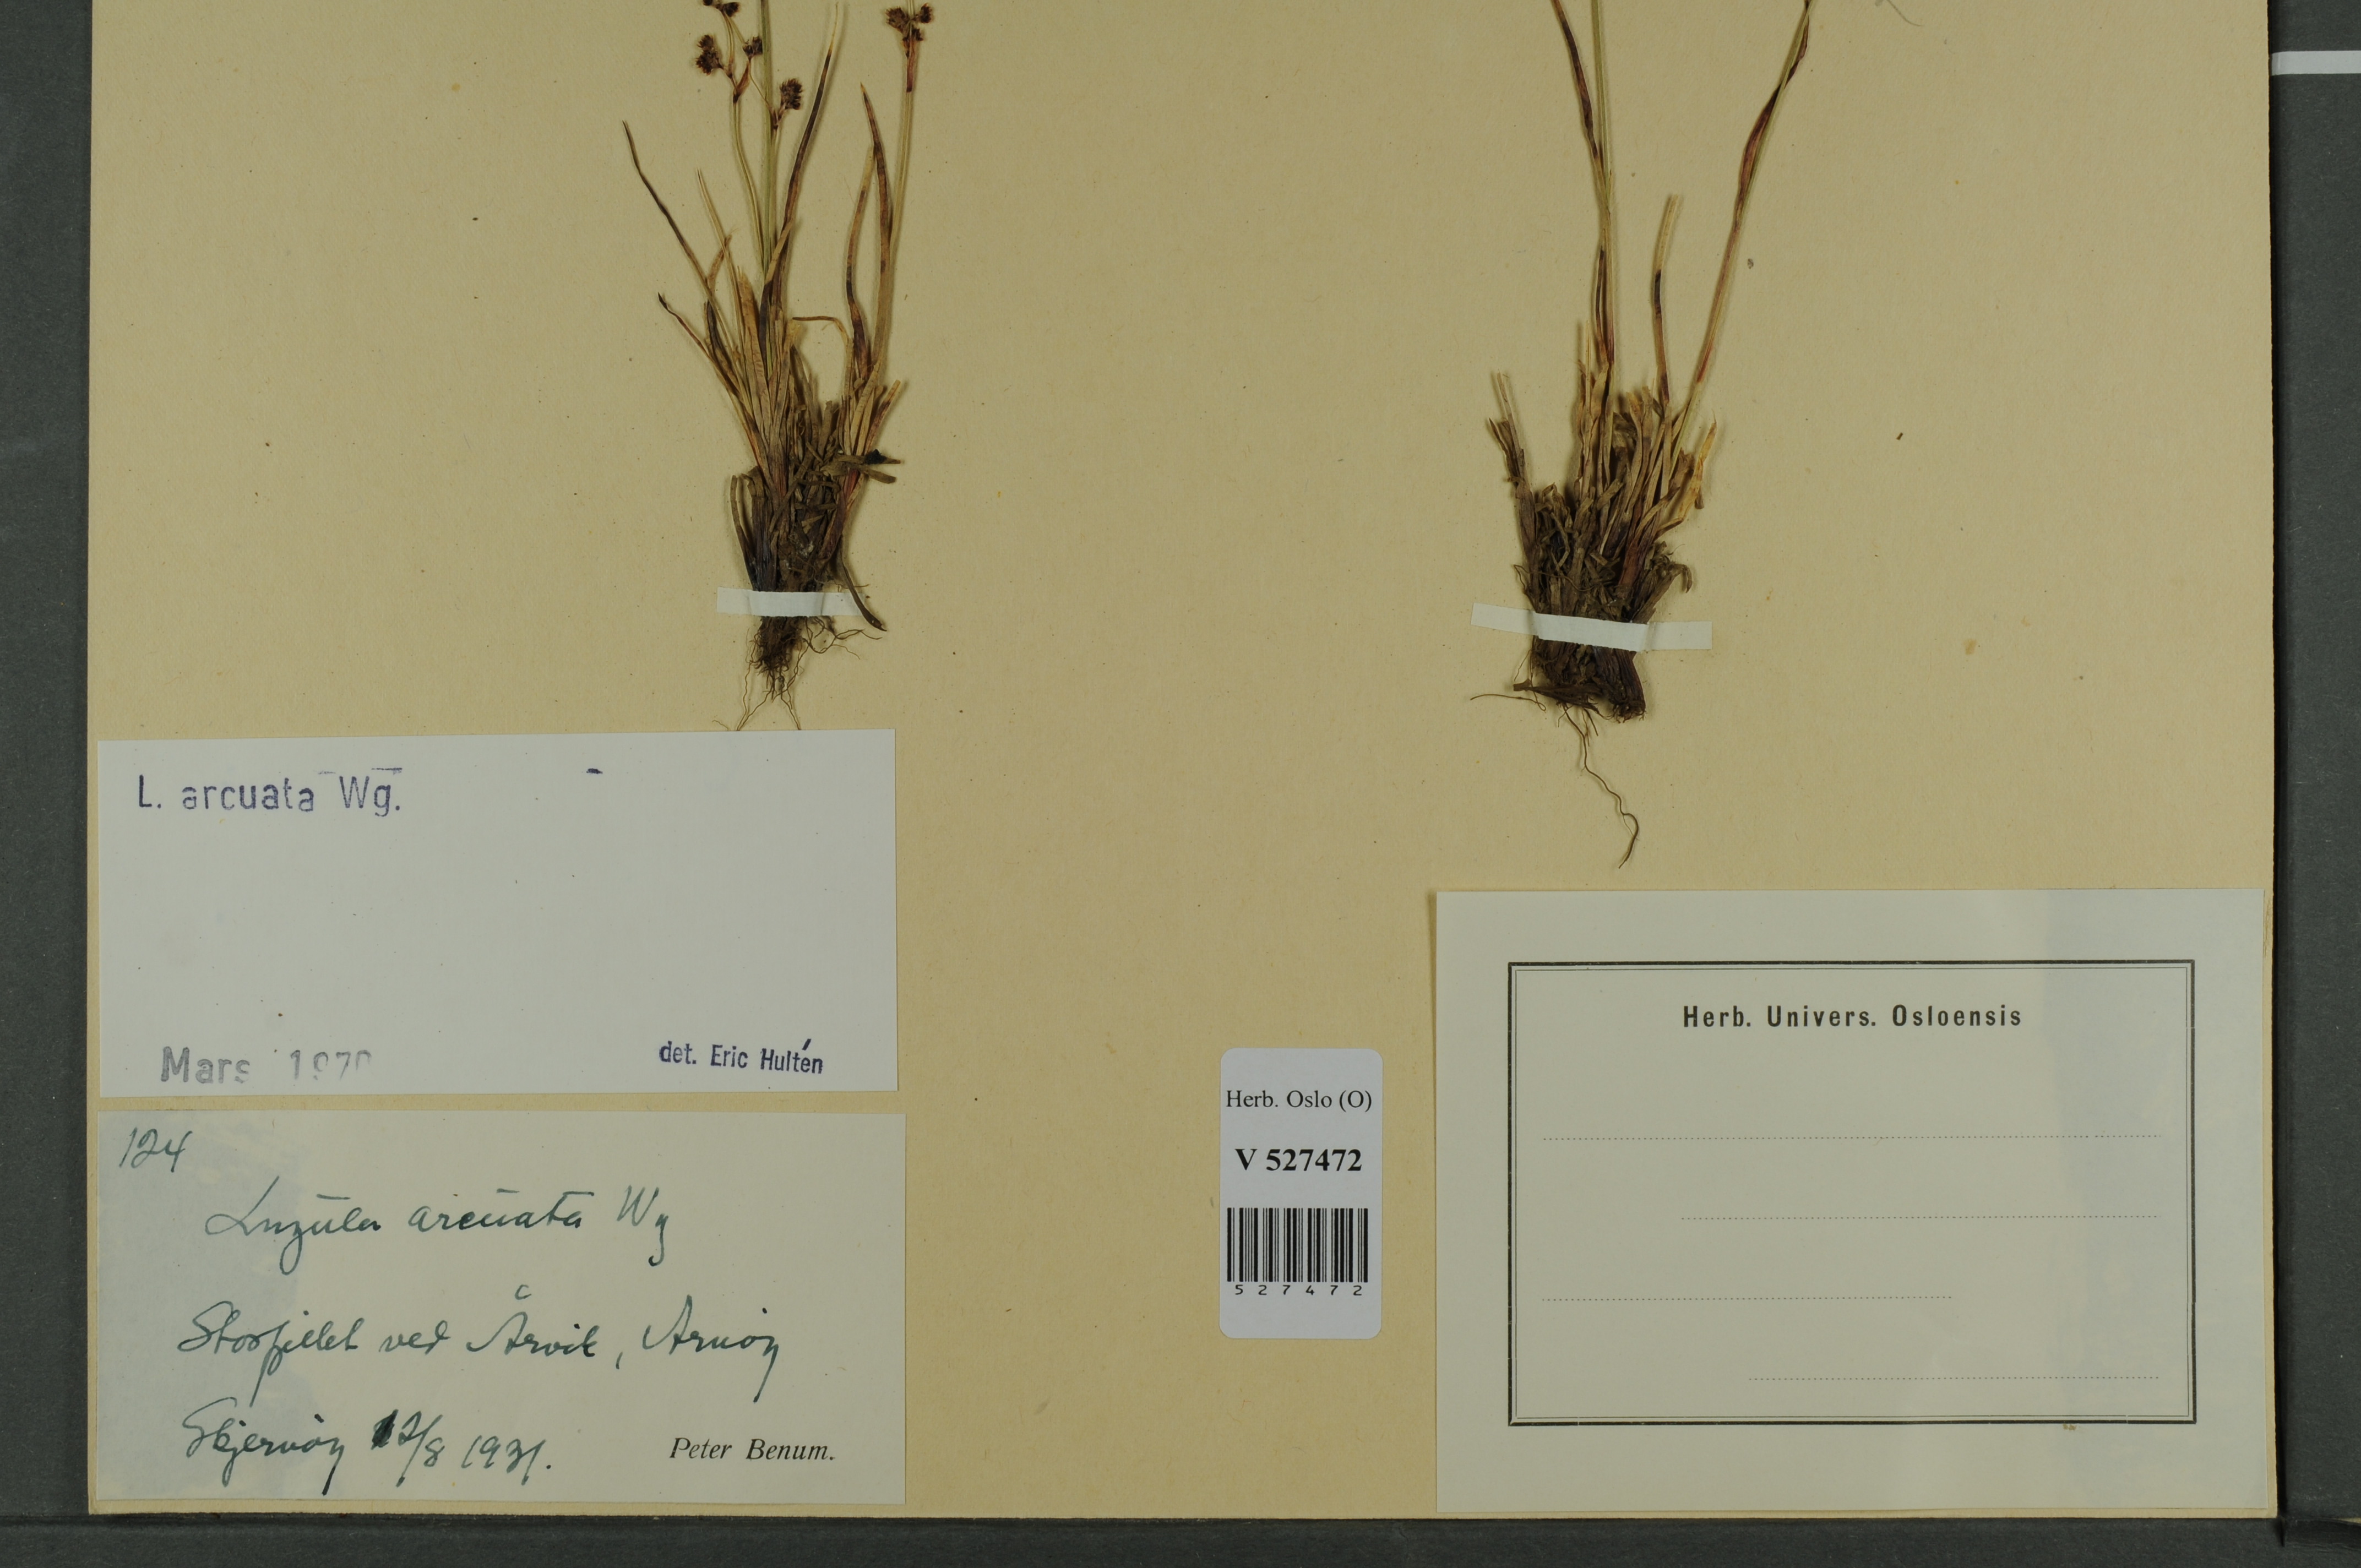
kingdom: Plantae
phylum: Tracheophyta
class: Liliopsida
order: Poales
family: Juncaceae
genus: Luzula
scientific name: Luzula arcuata
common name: Curved wood-rush
